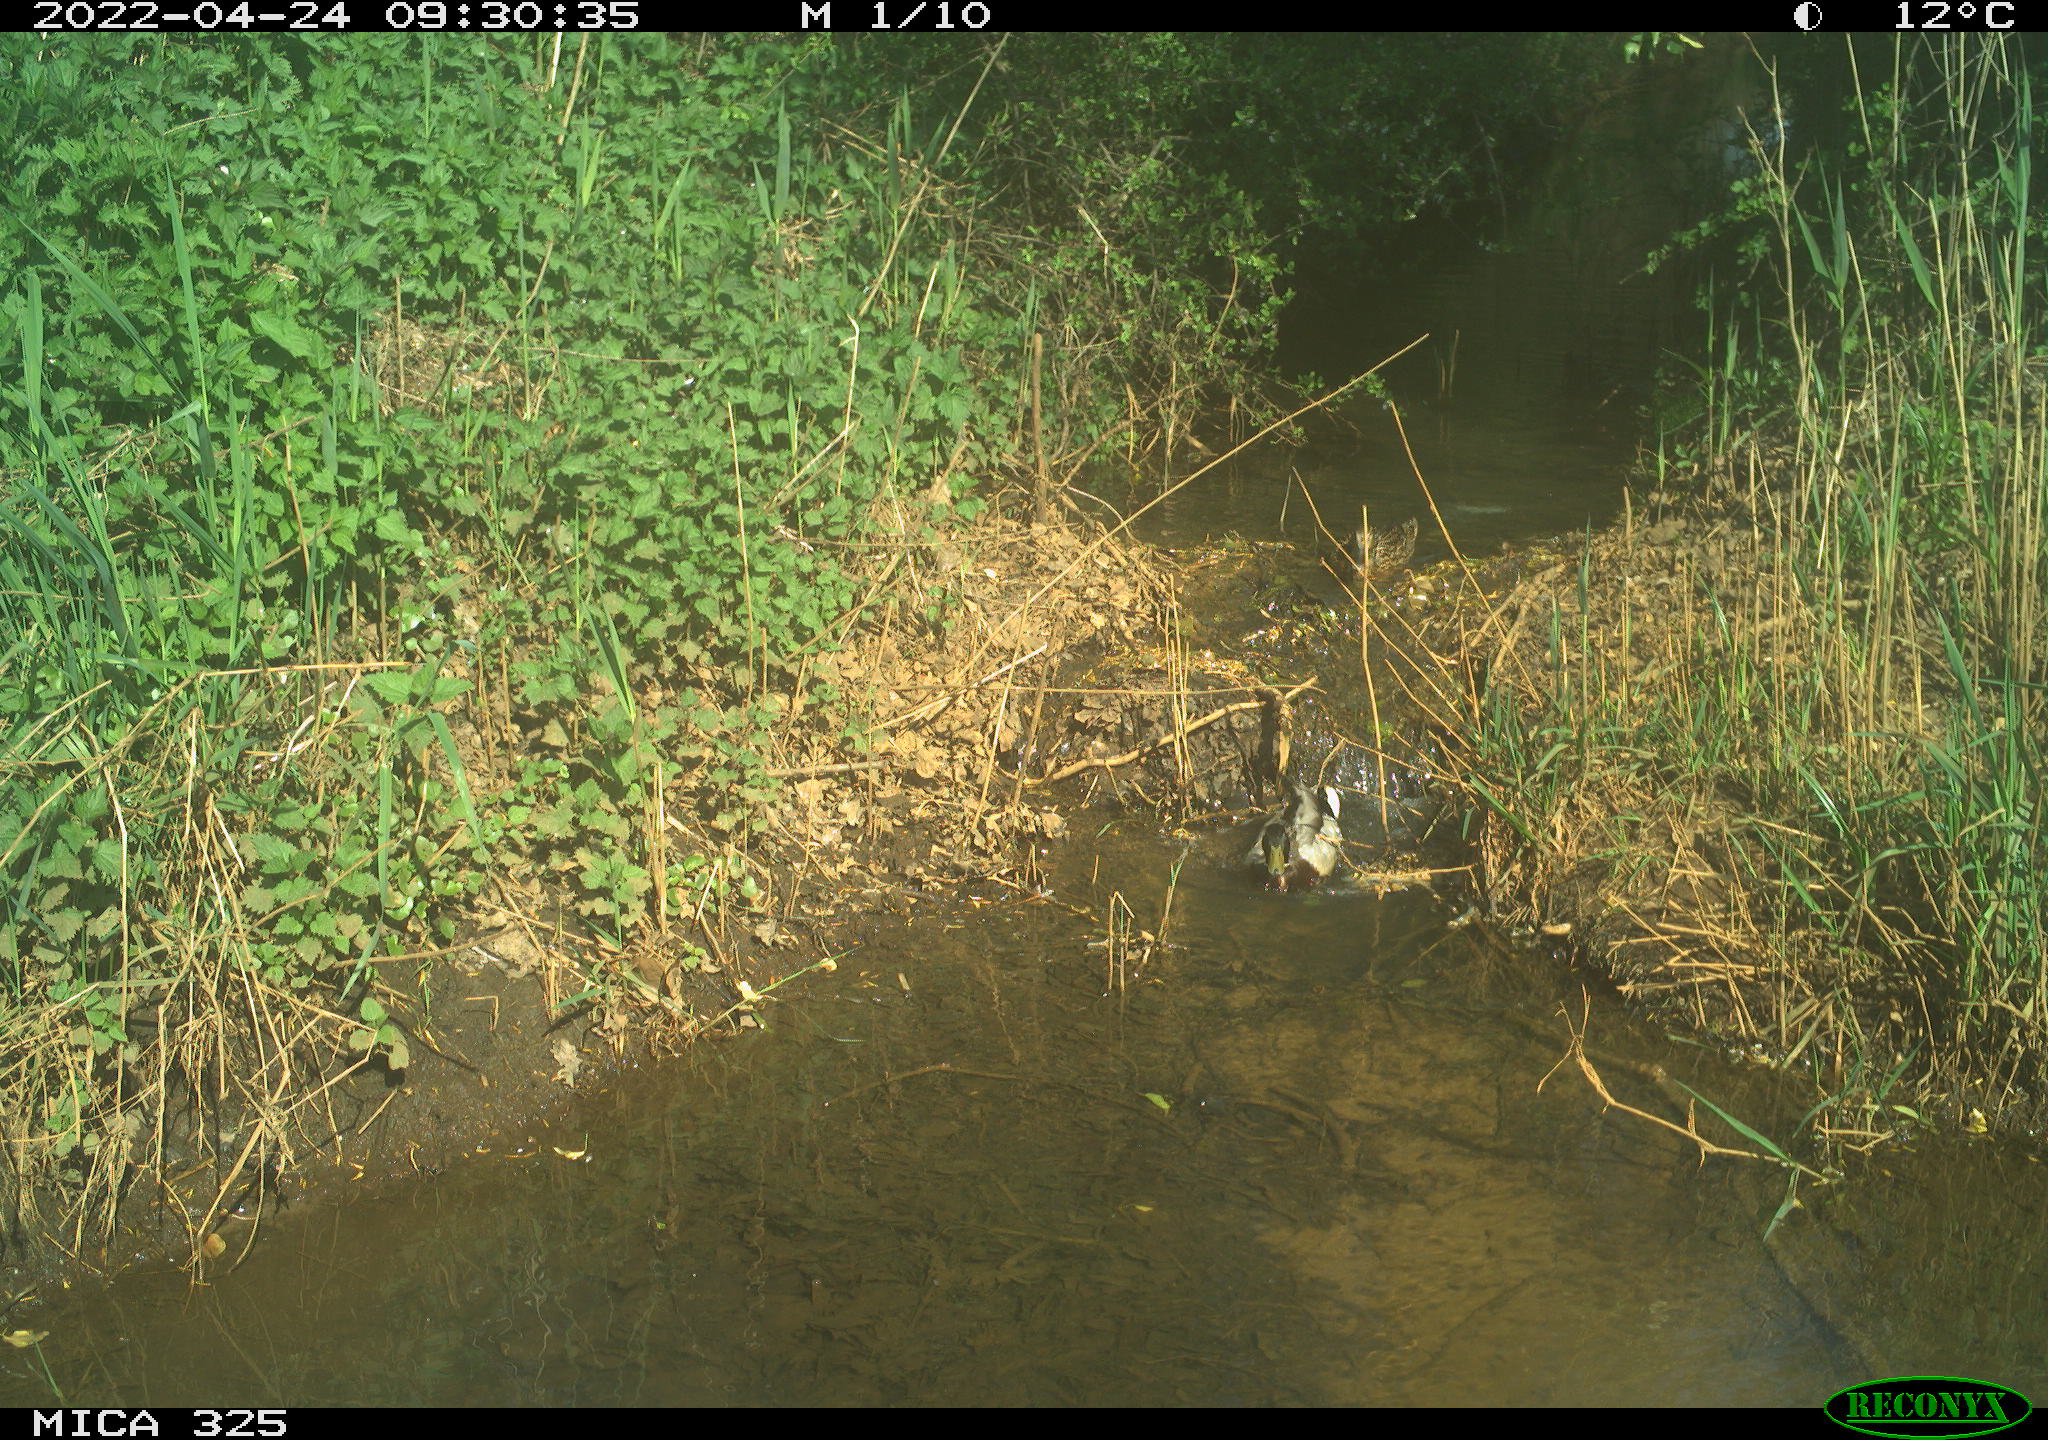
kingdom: Animalia
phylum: Chordata
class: Aves
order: Anseriformes
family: Anatidae
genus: Anas
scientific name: Anas platyrhynchos
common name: Mallard
